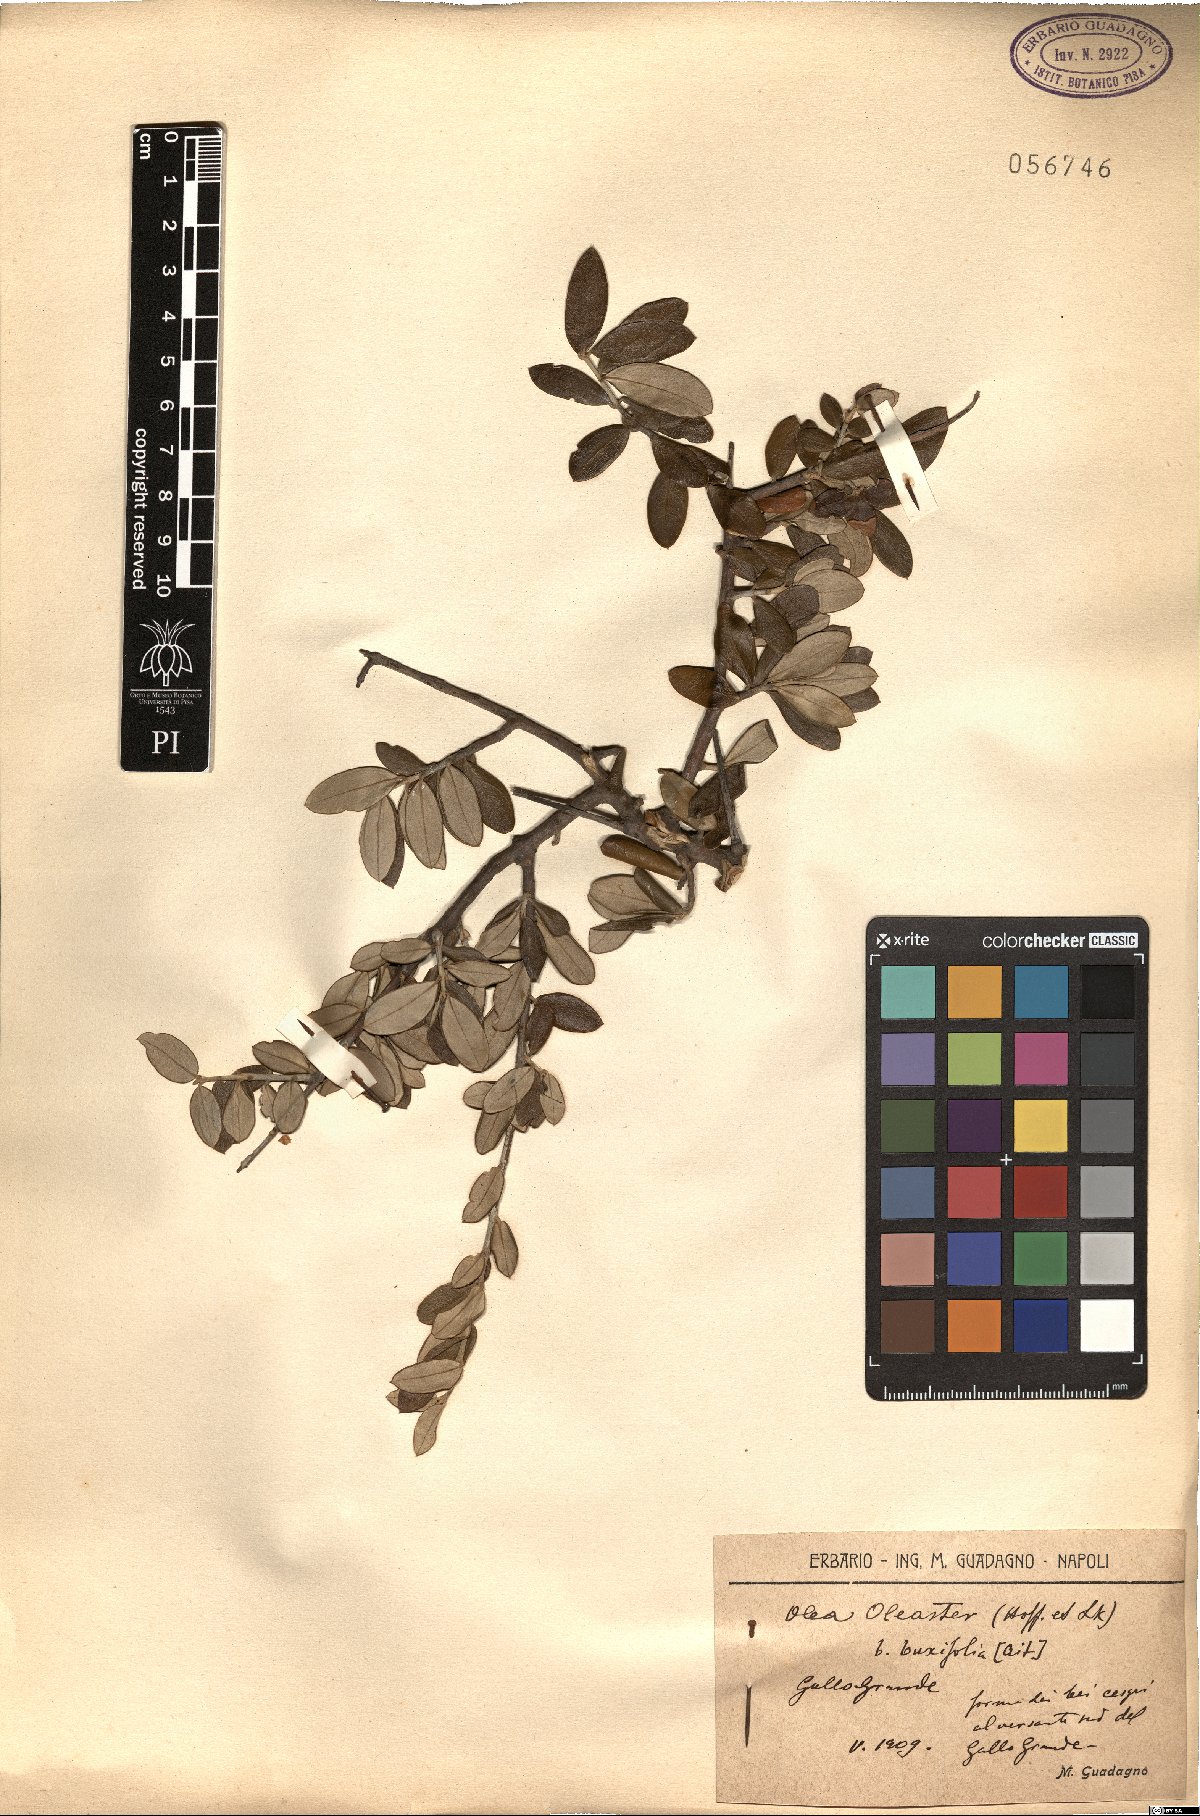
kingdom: Plantae
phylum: Tracheophyta
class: Magnoliopsida
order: Lamiales
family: Oleaceae
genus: Olea
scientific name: Olea europaea
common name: Olive
